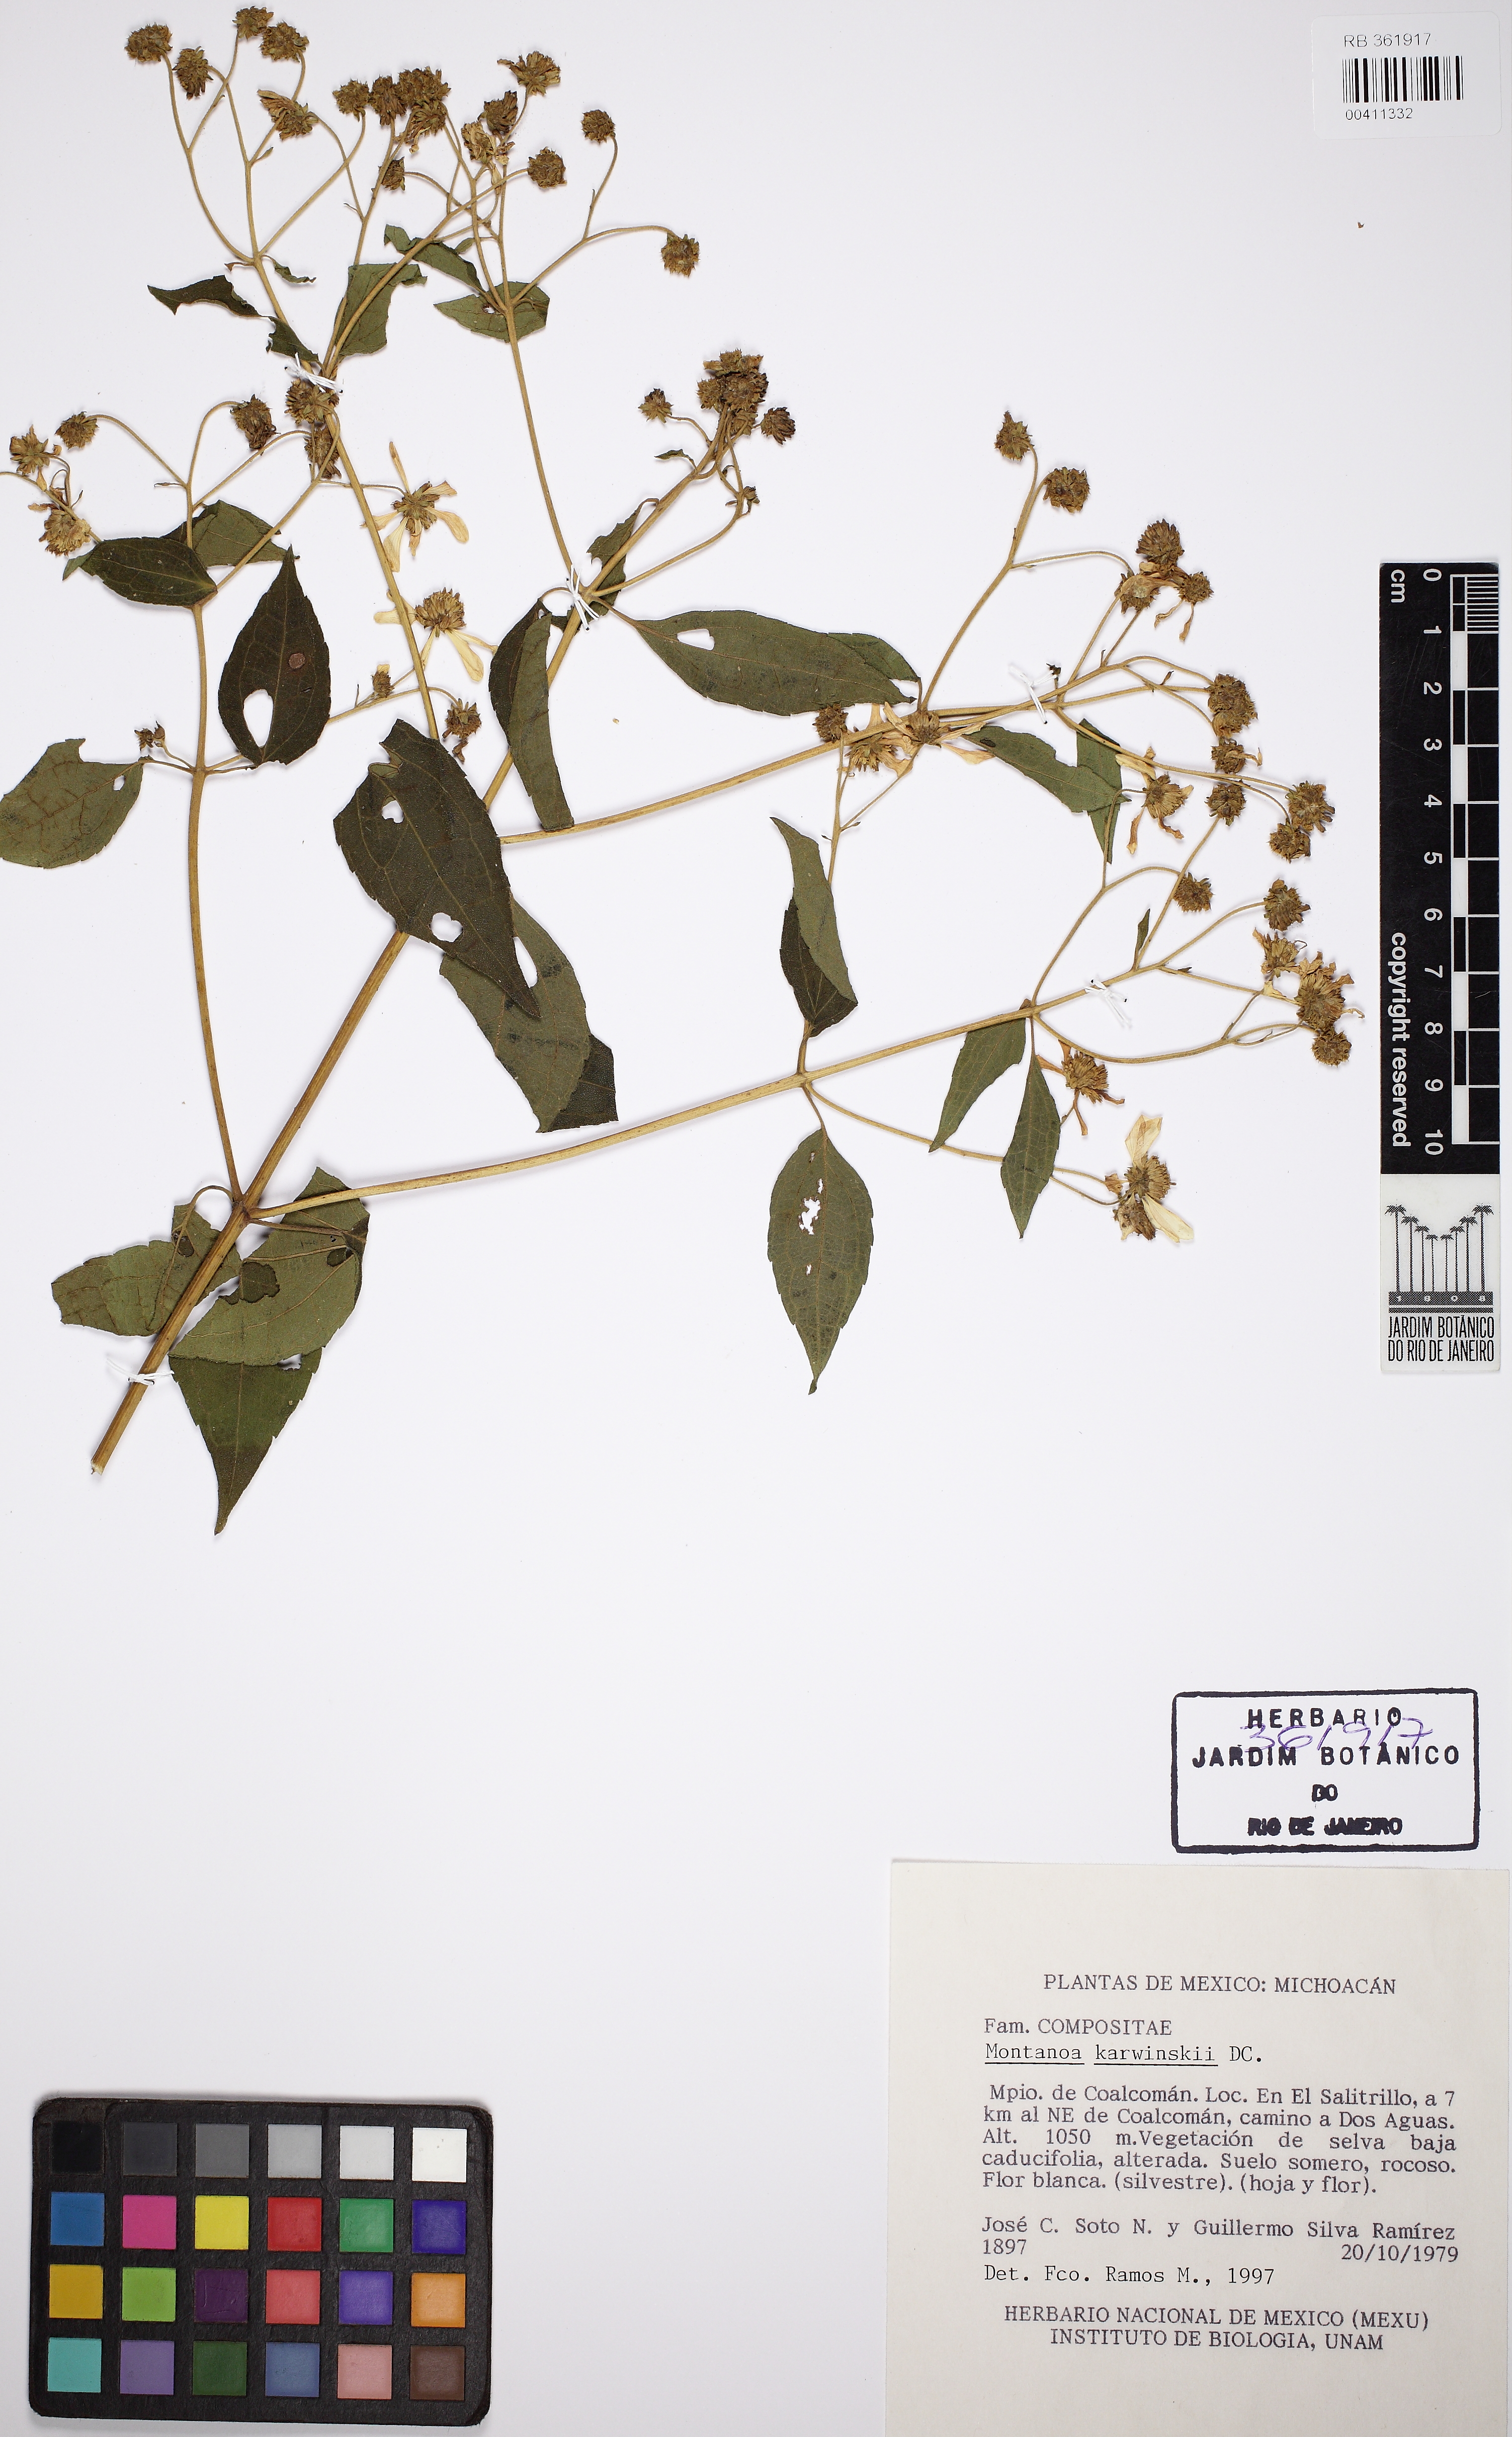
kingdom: Plantae
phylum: Tracheophyta
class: Magnoliopsida
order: Asterales
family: Asteraceae
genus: Montanoa
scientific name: Montanoa karwinskii
